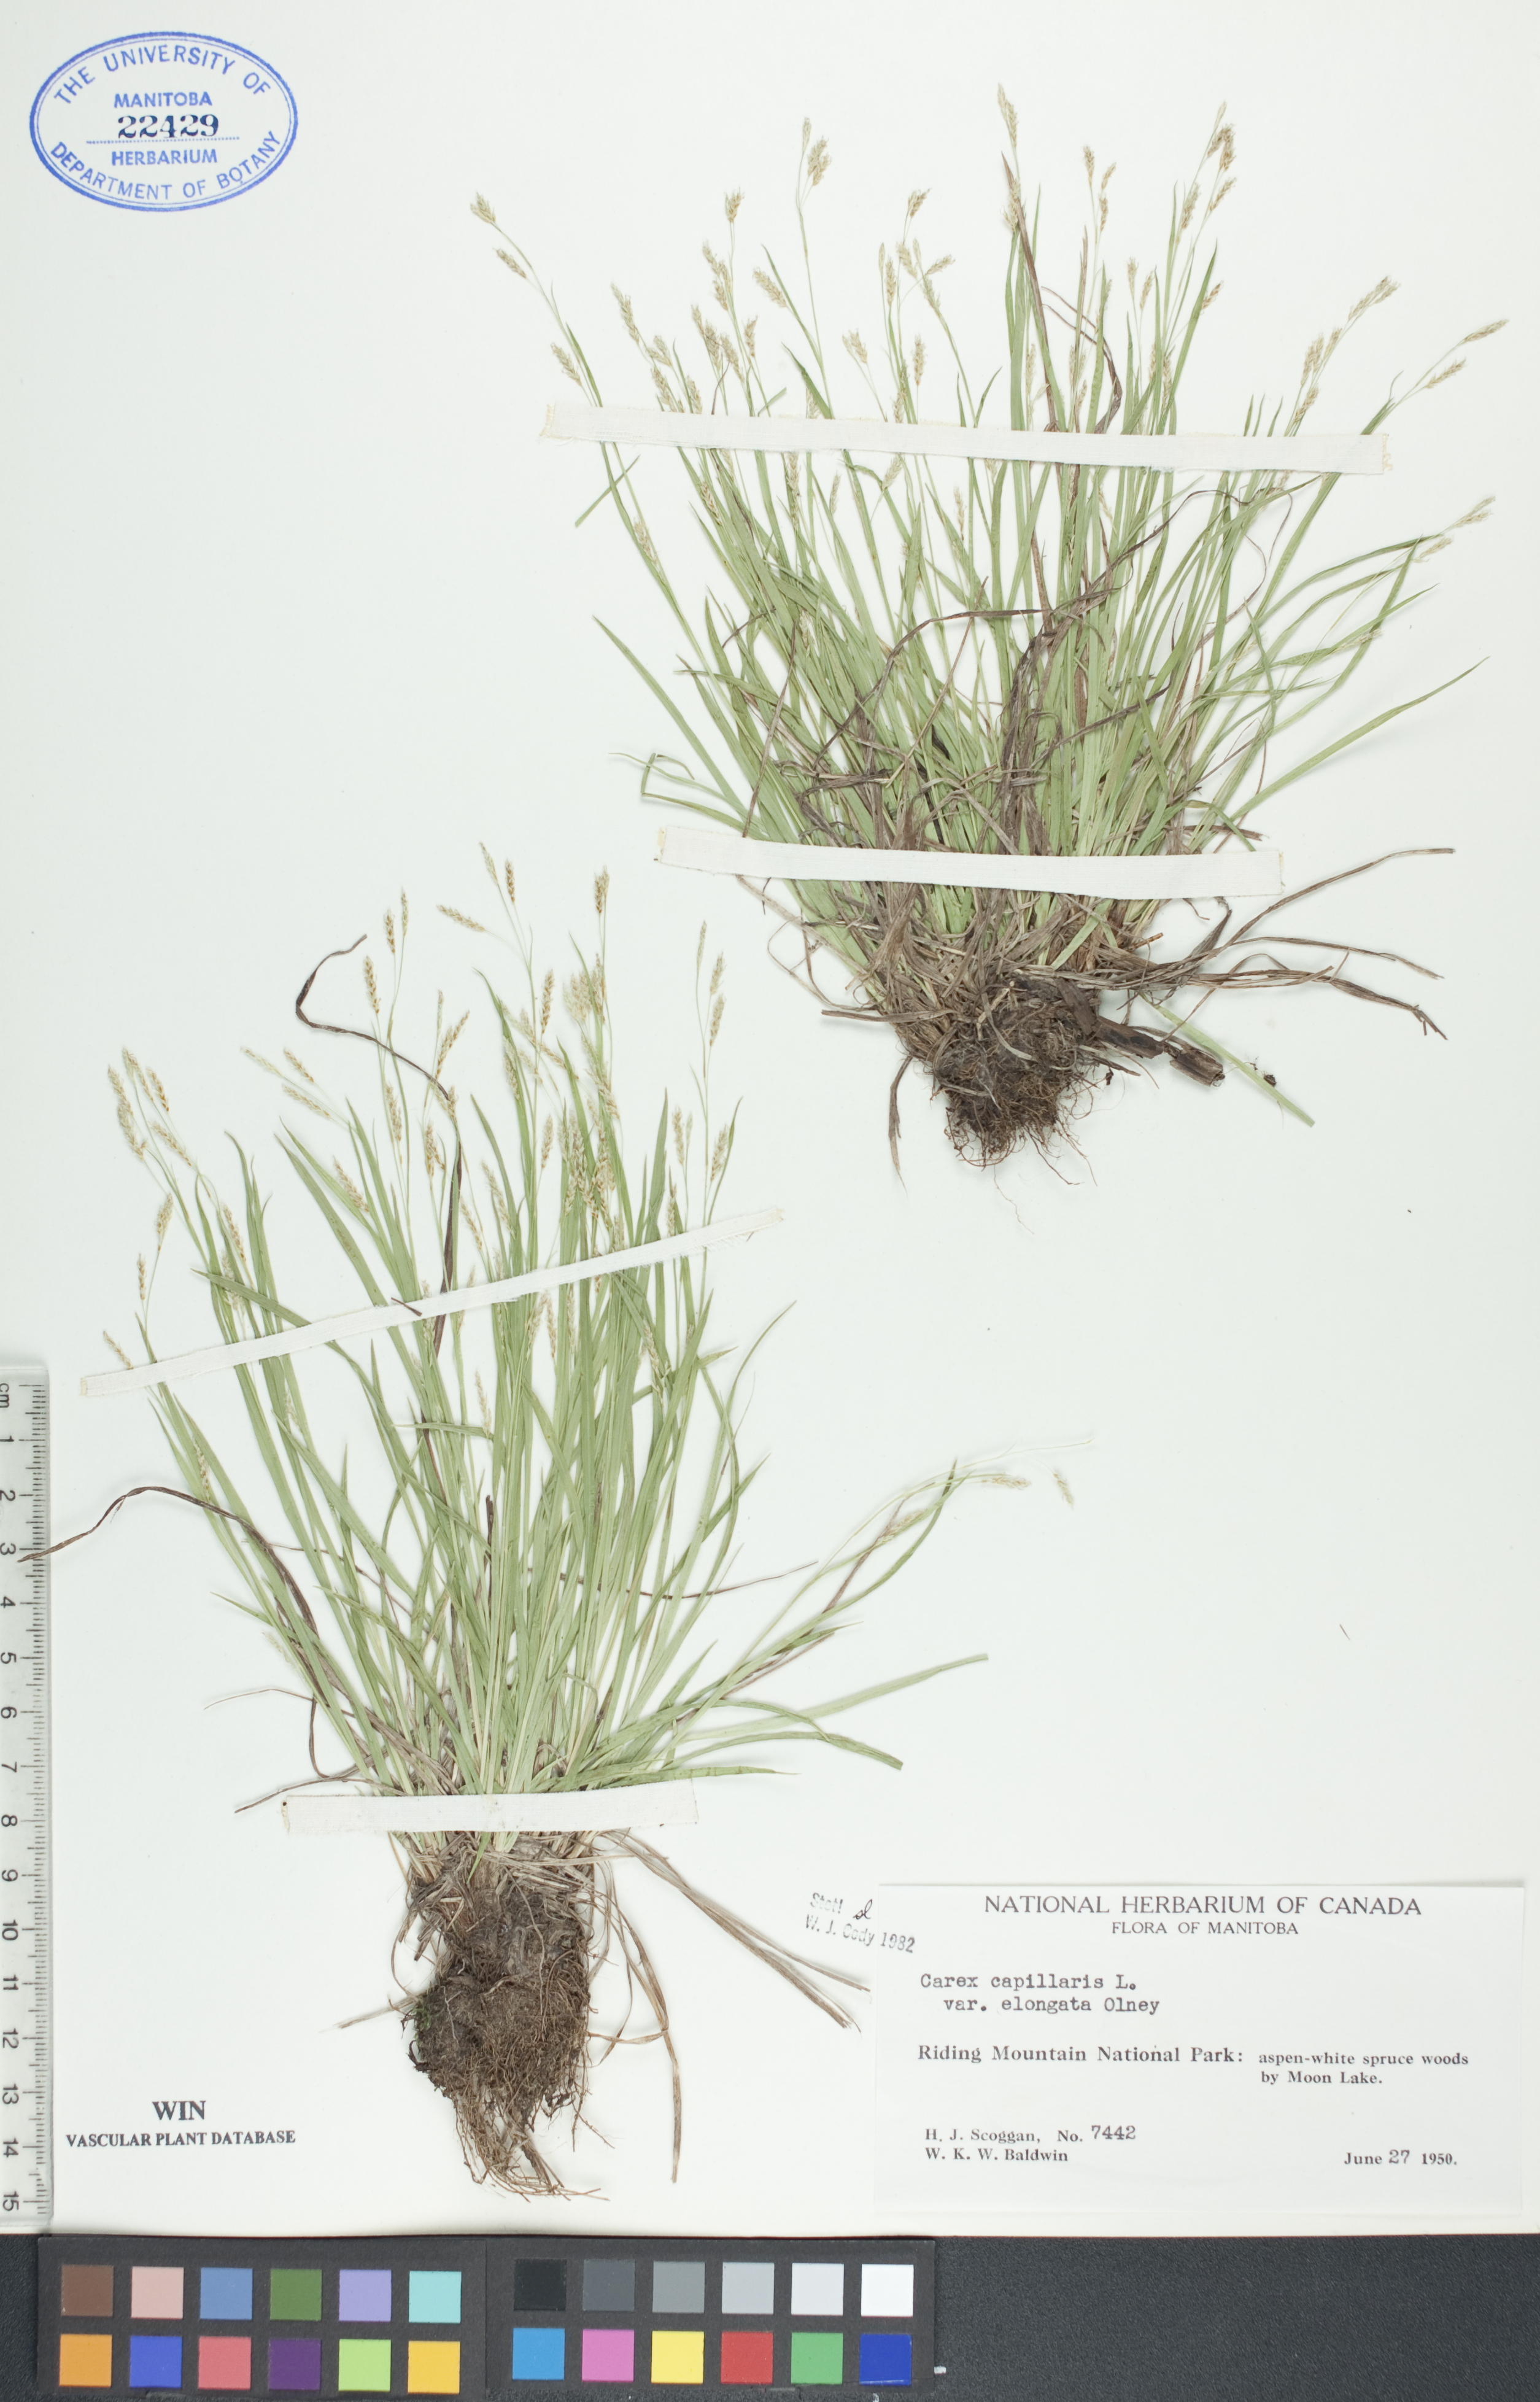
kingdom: Plantae
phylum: Tracheophyta
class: Liliopsida
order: Poales
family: Cyperaceae
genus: Carex
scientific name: Carex capillaris
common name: Hair sedge
